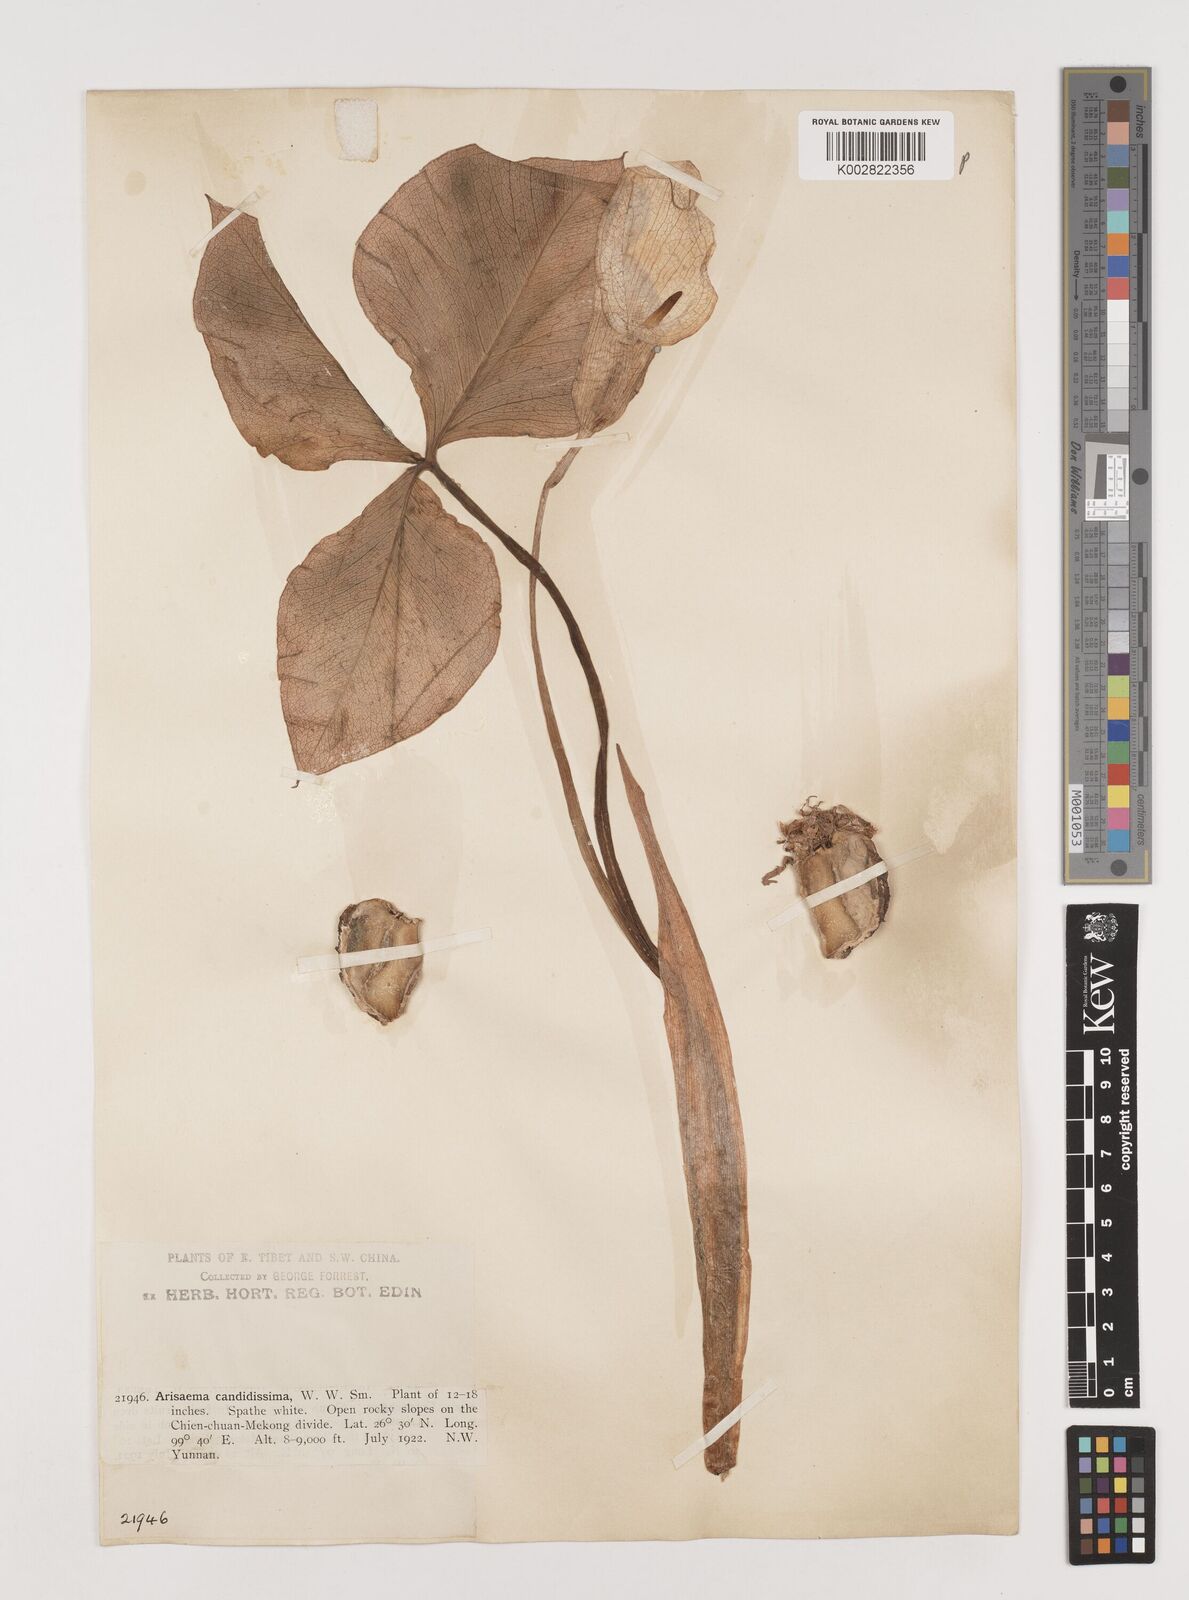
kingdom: Plantae
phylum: Tracheophyta
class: Liliopsida
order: Alismatales
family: Araceae
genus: Arisaema
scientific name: Arisaema candidissimum
